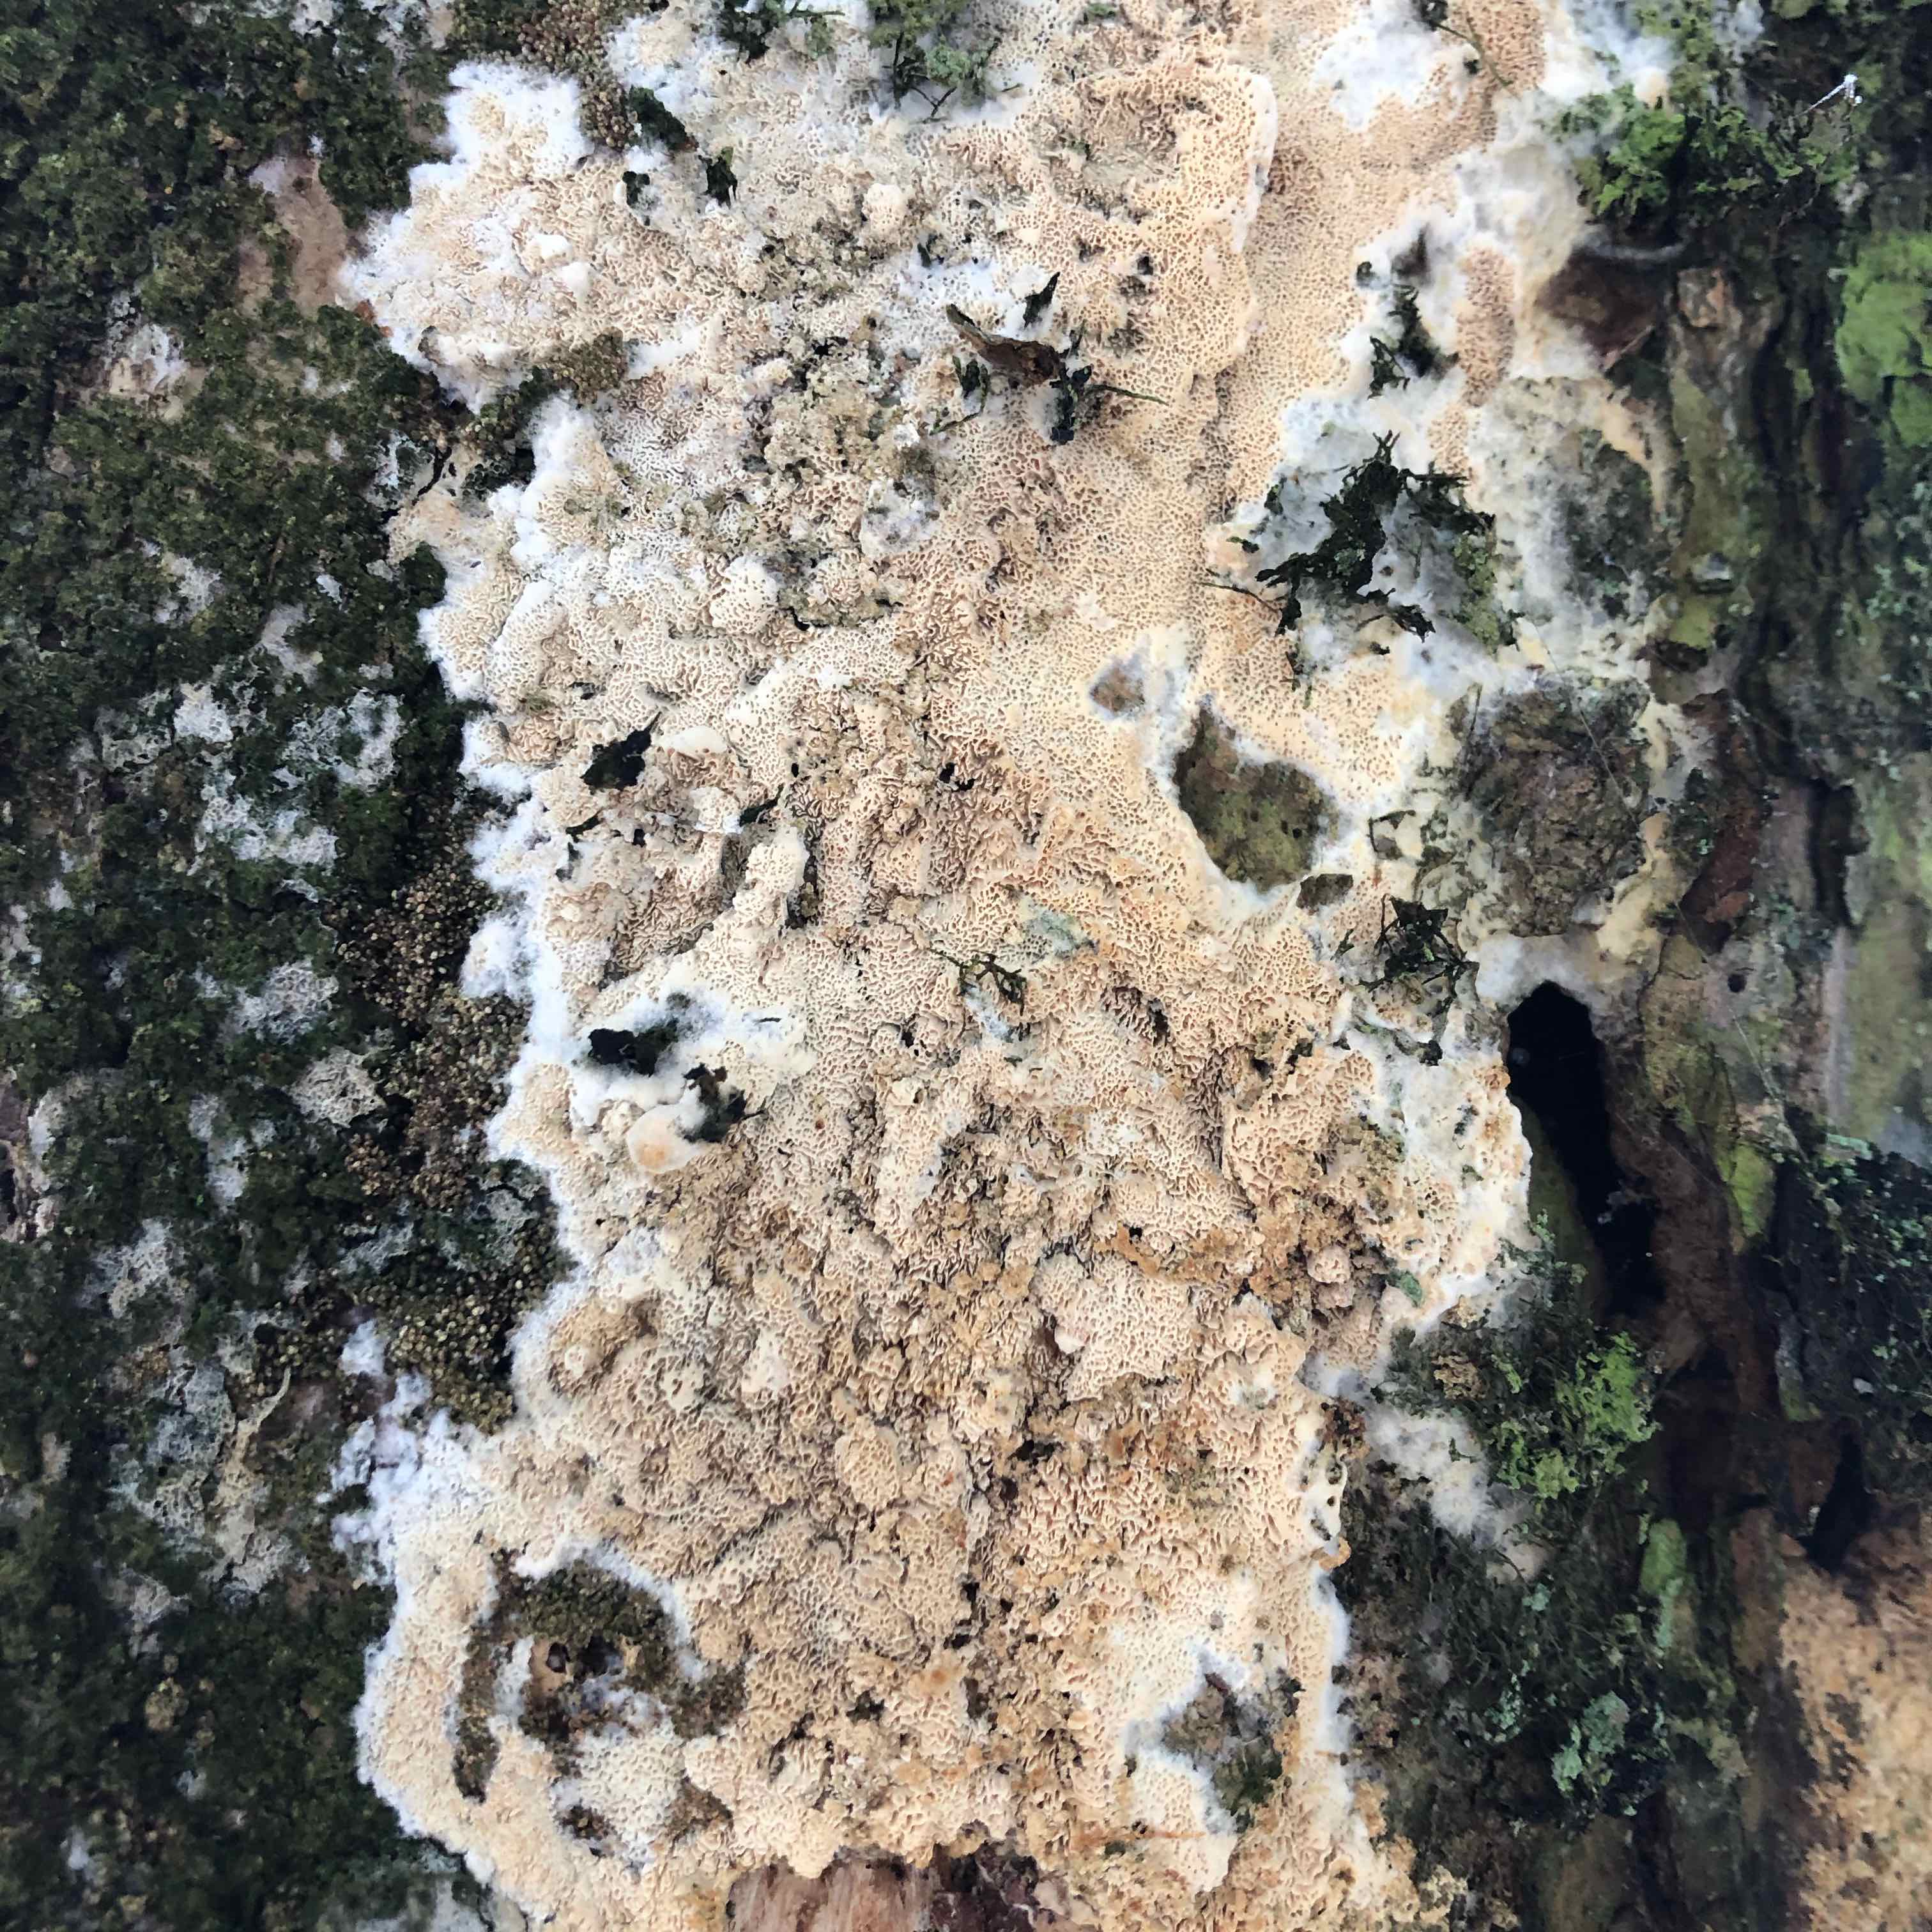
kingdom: Fungi
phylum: Basidiomycota
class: Agaricomycetes
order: Polyporales
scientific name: Polyporales
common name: poresvampordenen
